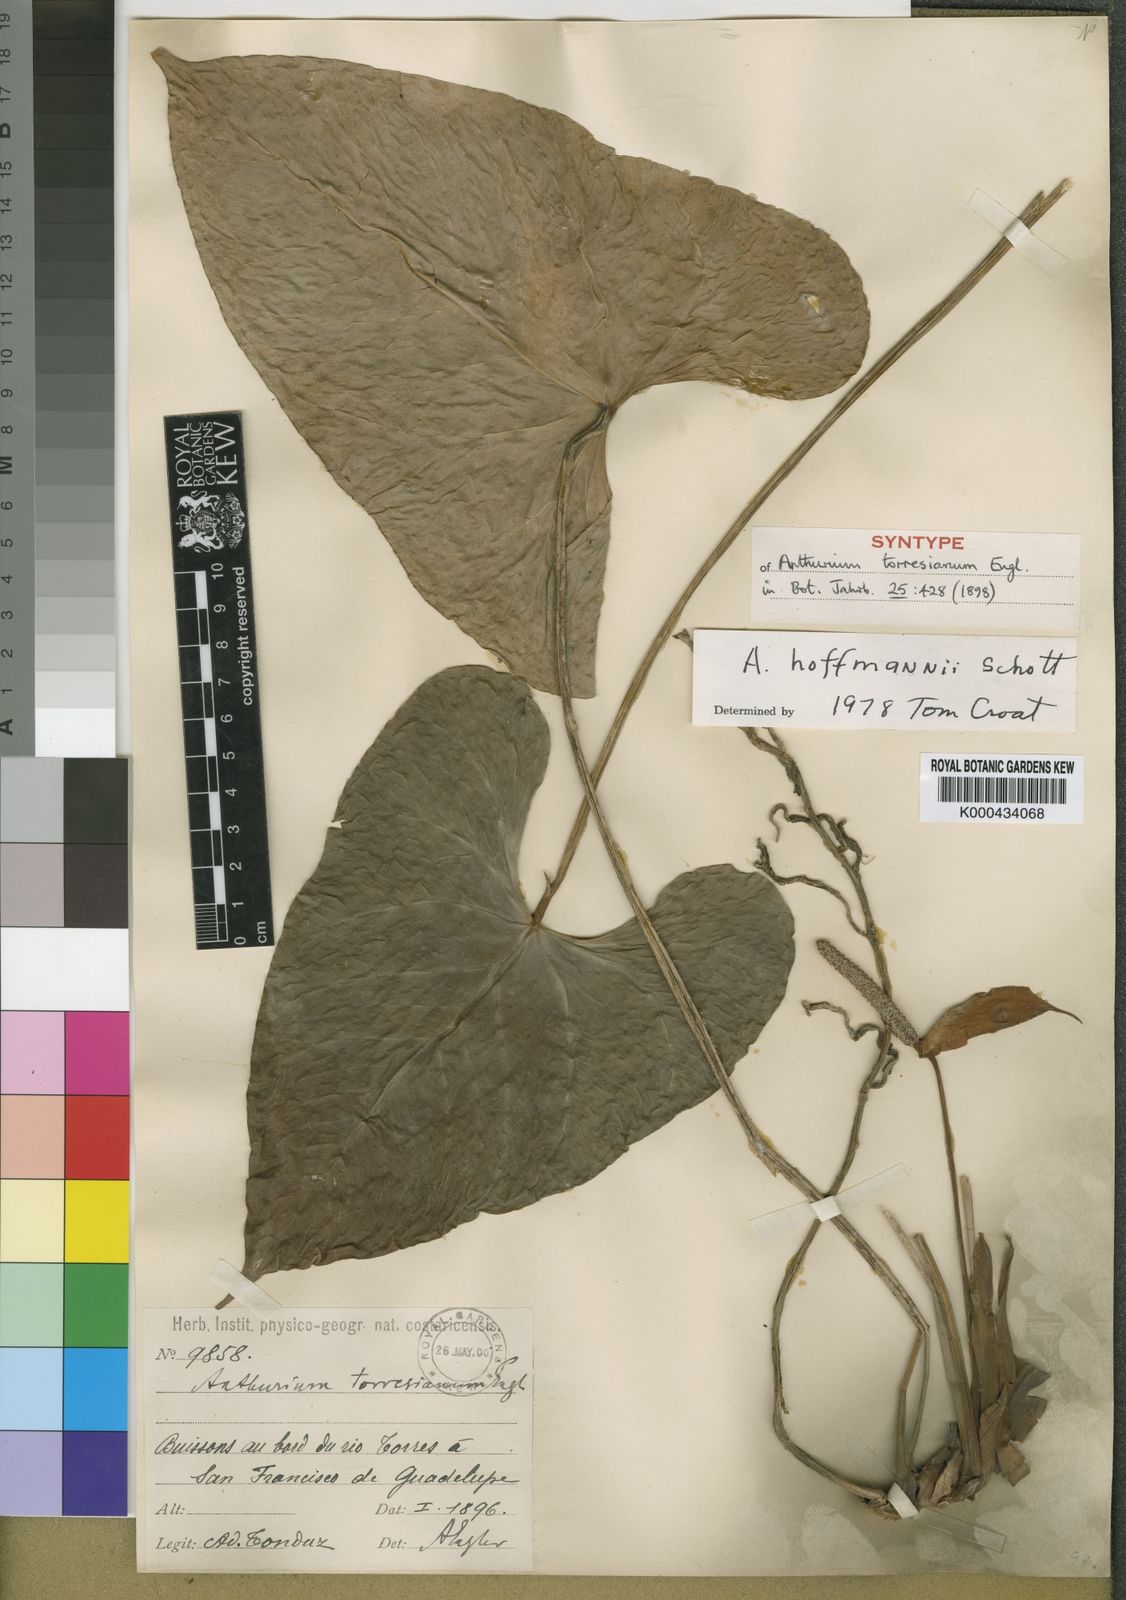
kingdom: Plantae
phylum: Tracheophyta
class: Liliopsida
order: Alismatales
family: Araceae
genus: Anthurium
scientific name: Anthurium hoffmannii
